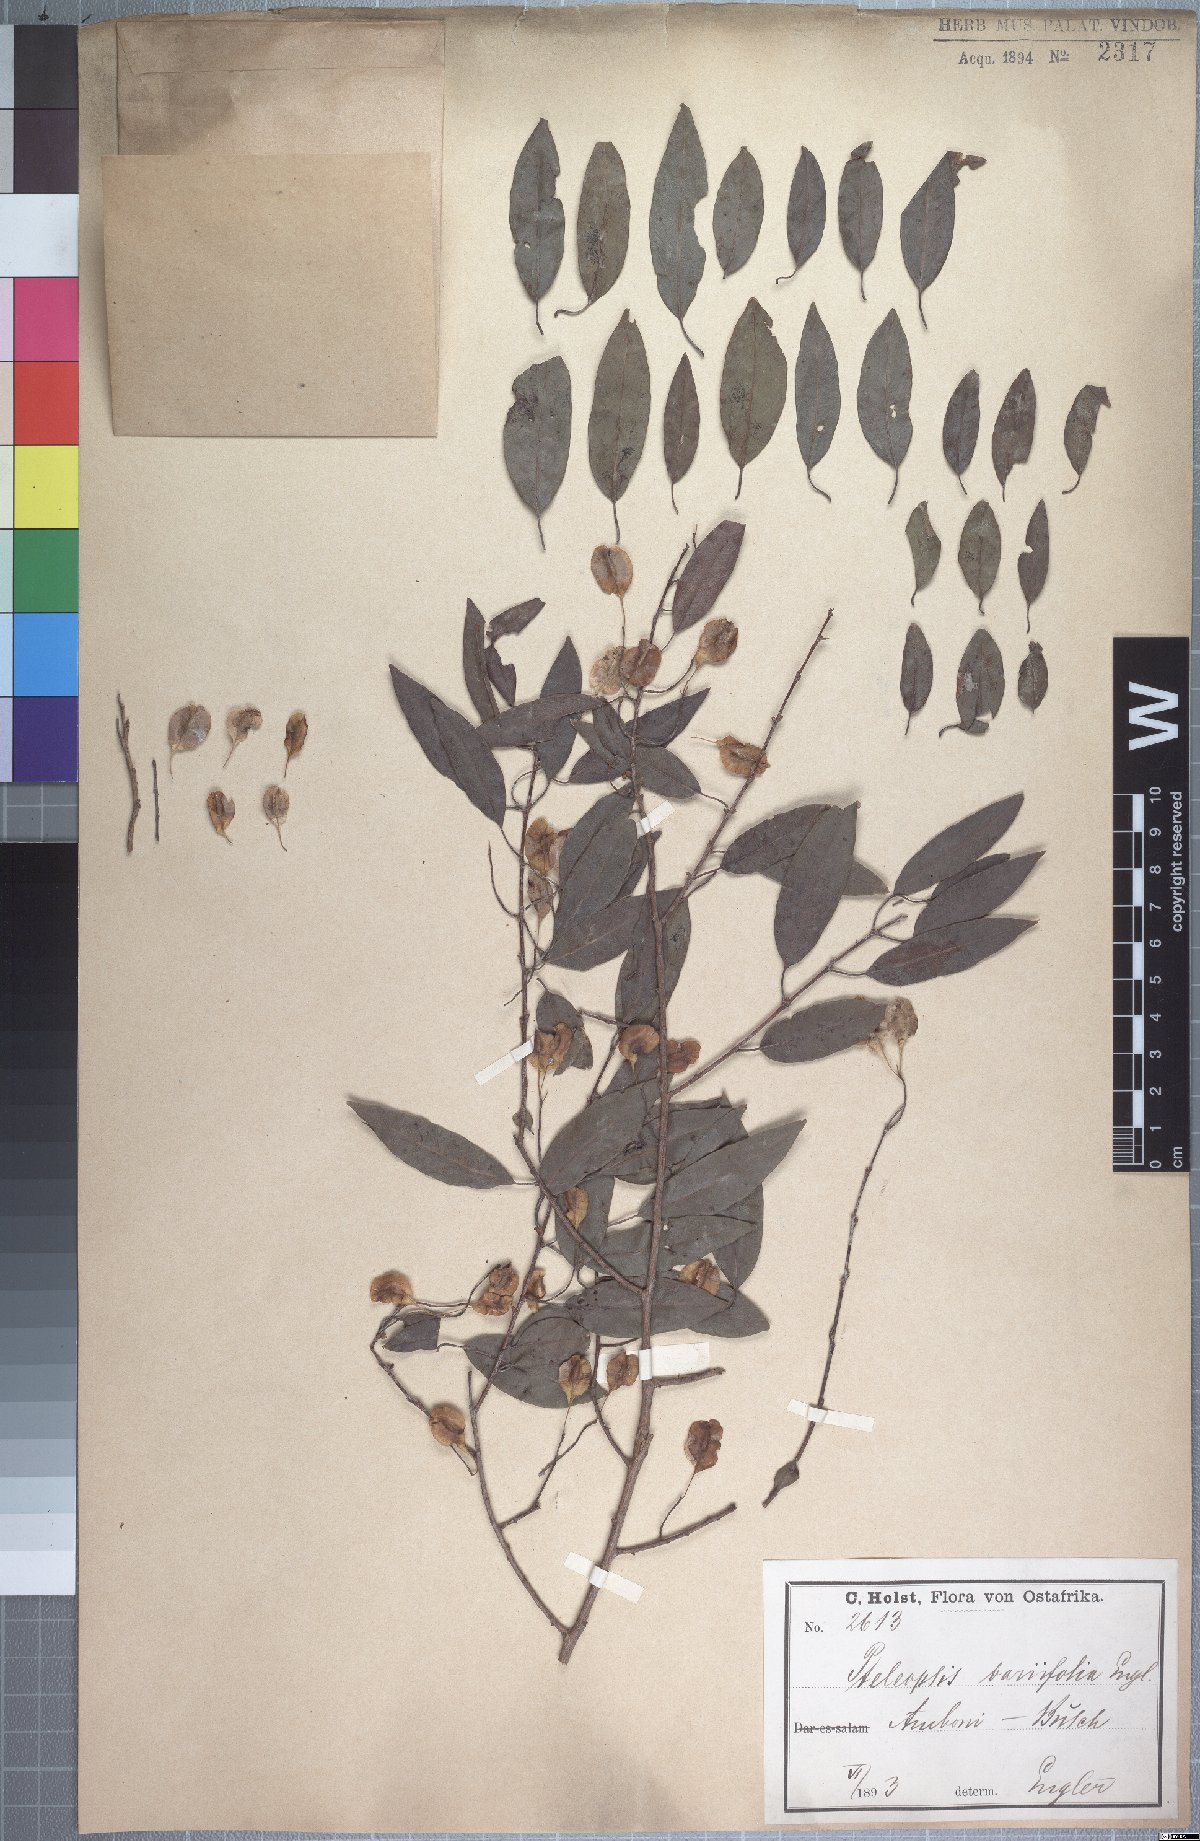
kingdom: Plantae
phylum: Tracheophyta
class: Magnoliopsida
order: Myrtales
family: Combretaceae
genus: Terminalia
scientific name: Terminalia myrtifolia
